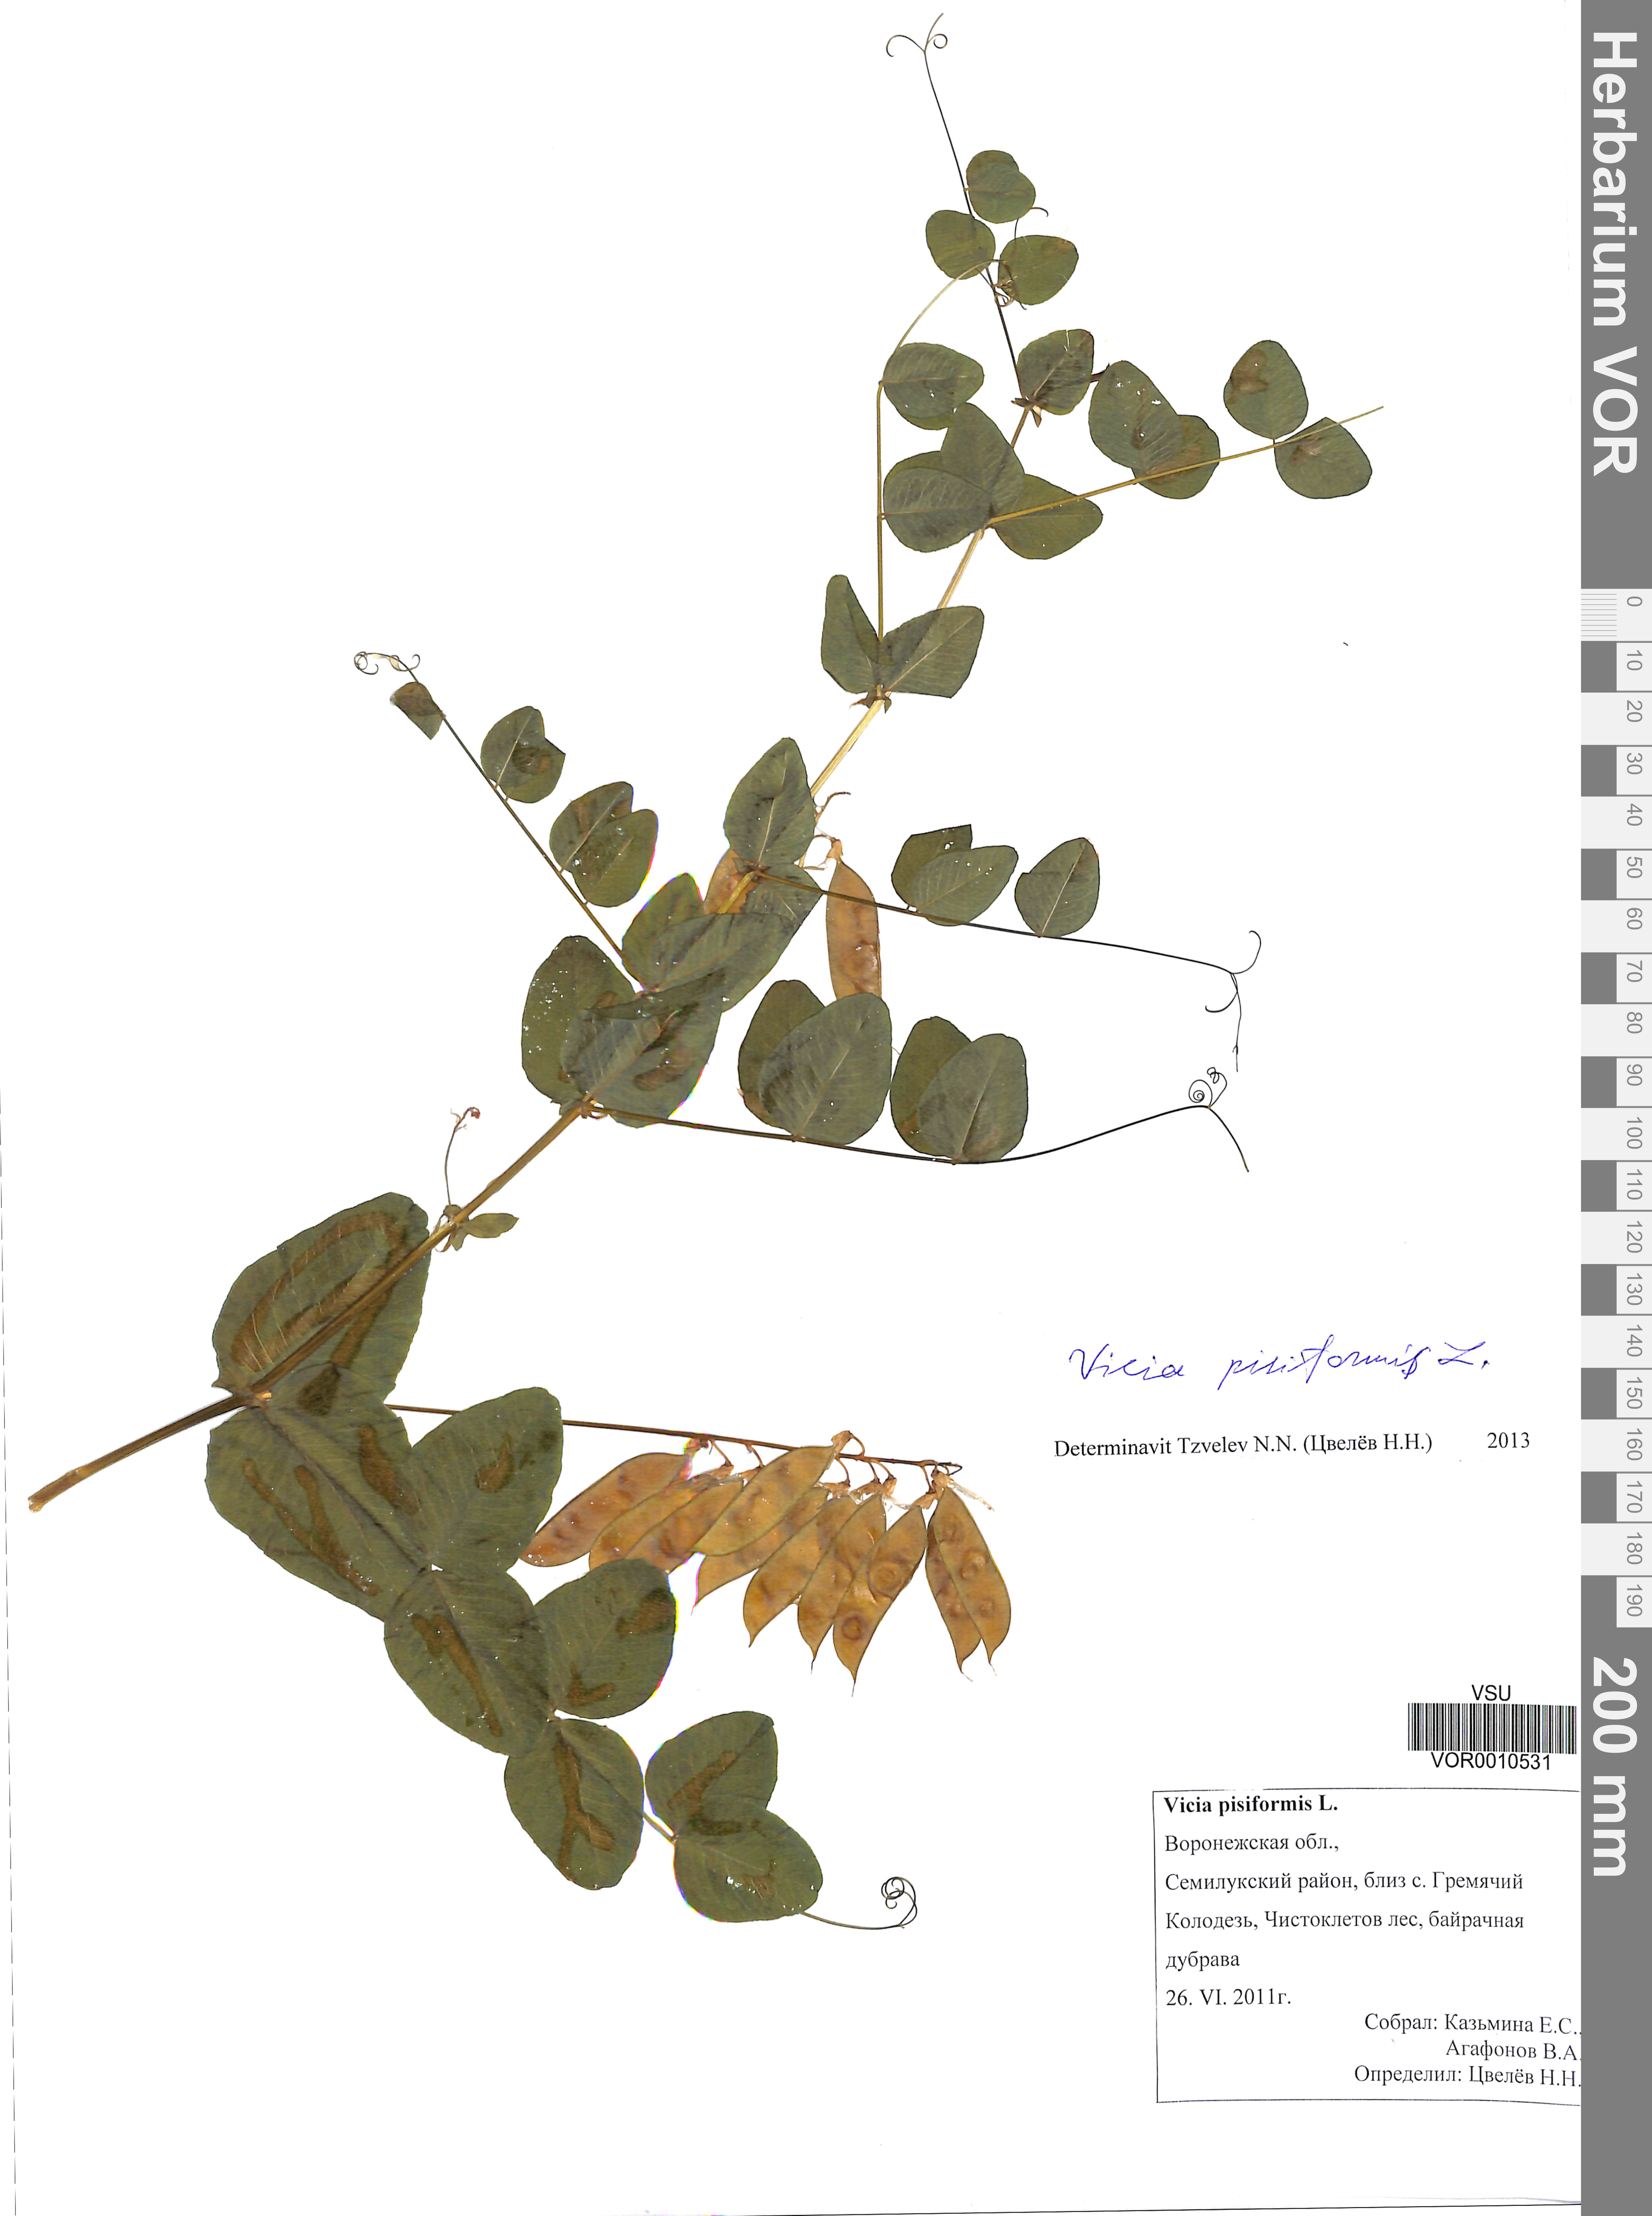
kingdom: Plantae
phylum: Tracheophyta
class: Magnoliopsida
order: Fabales
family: Fabaceae
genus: Vicia
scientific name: Vicia pisiformis
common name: Pale-flower vetch
